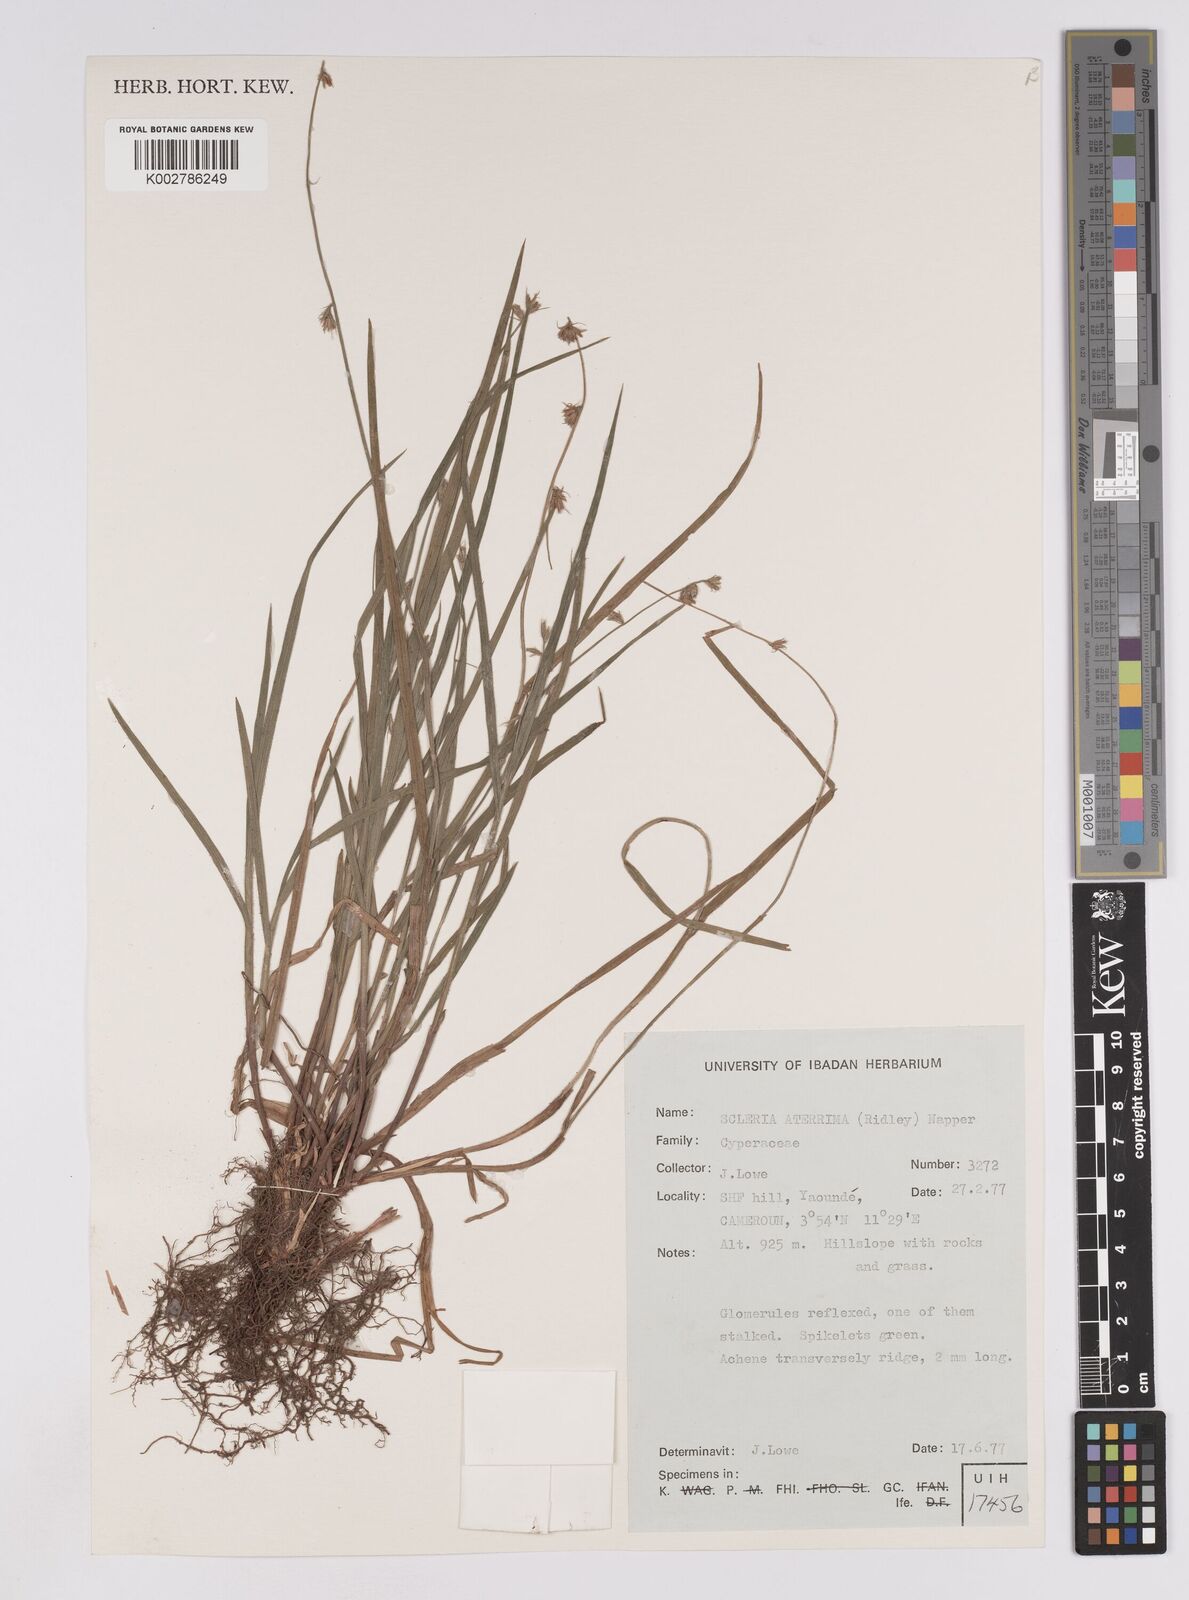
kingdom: Plantae
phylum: Tracheophyta
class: Liliopsida
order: Poales
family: Cyperaceae
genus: Scleria
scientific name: Scleria catophylla
